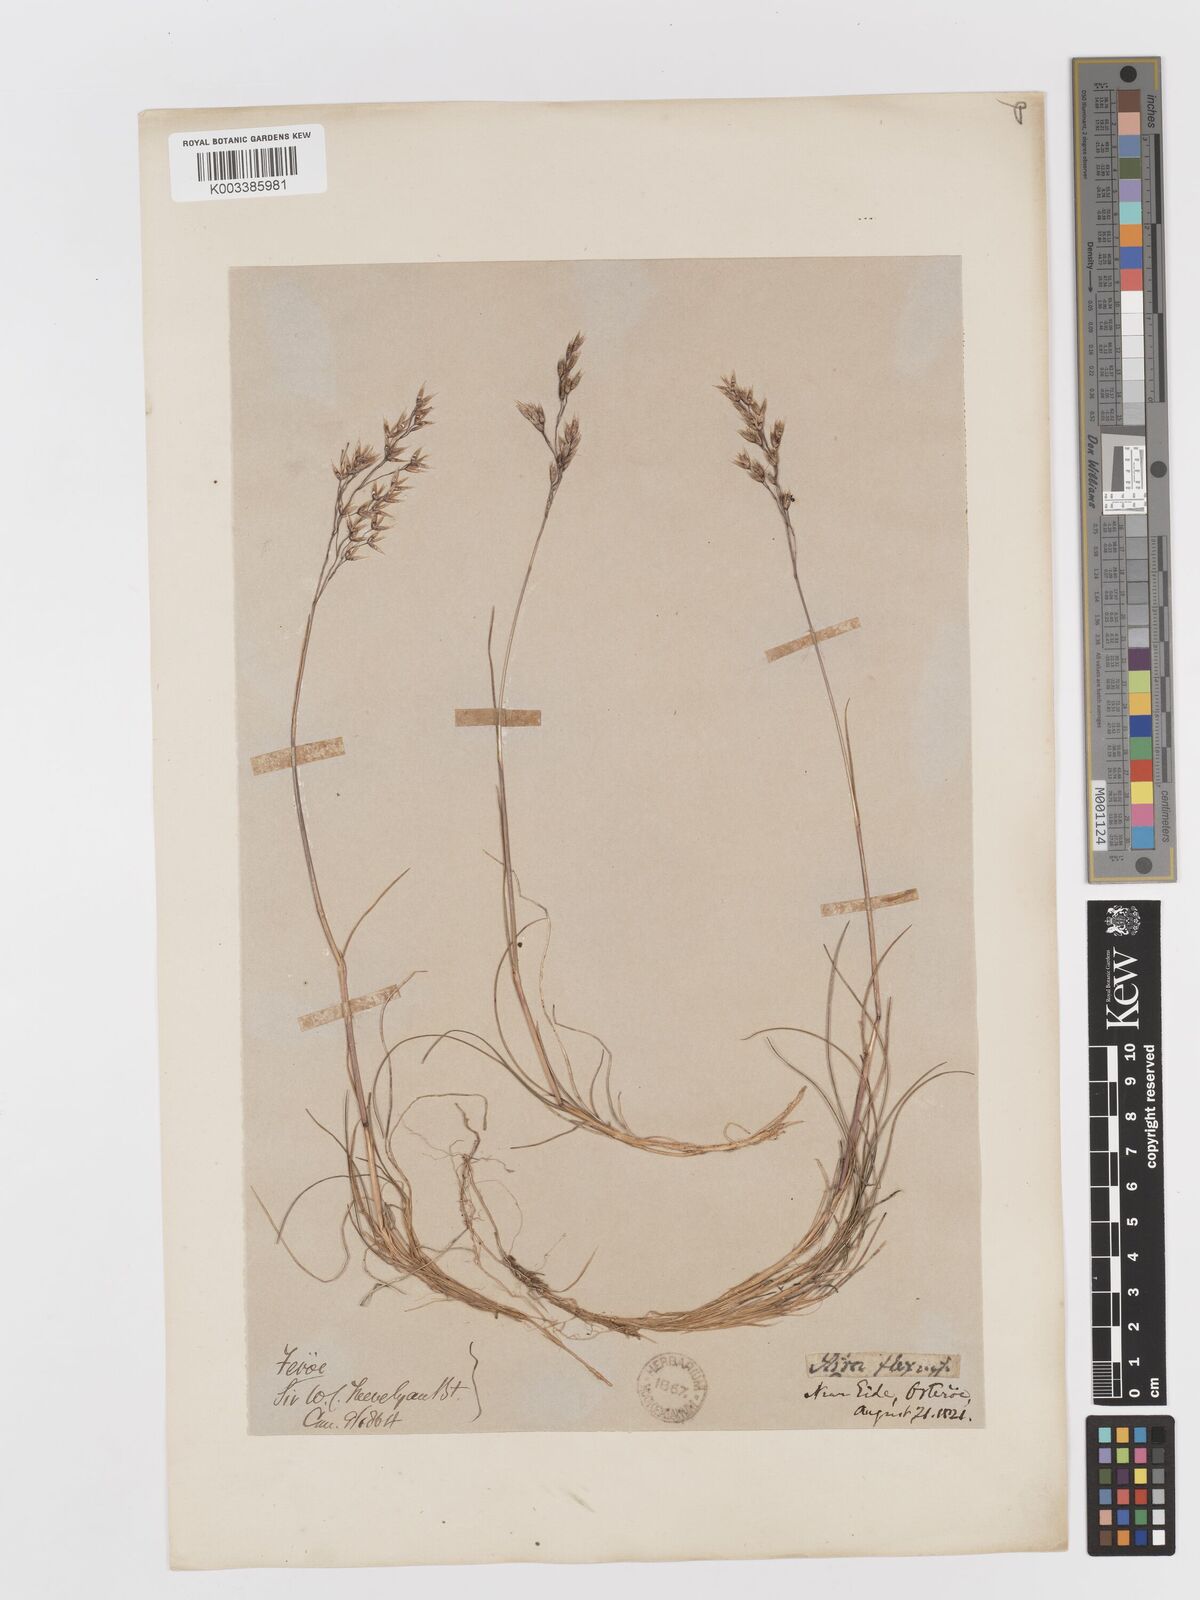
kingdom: Plantae
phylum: Tracheophyta
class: Liliopsida
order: Poales
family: Poaceae
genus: Avenella
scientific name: Avenella flexuosa
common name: Wavy hairgrass
